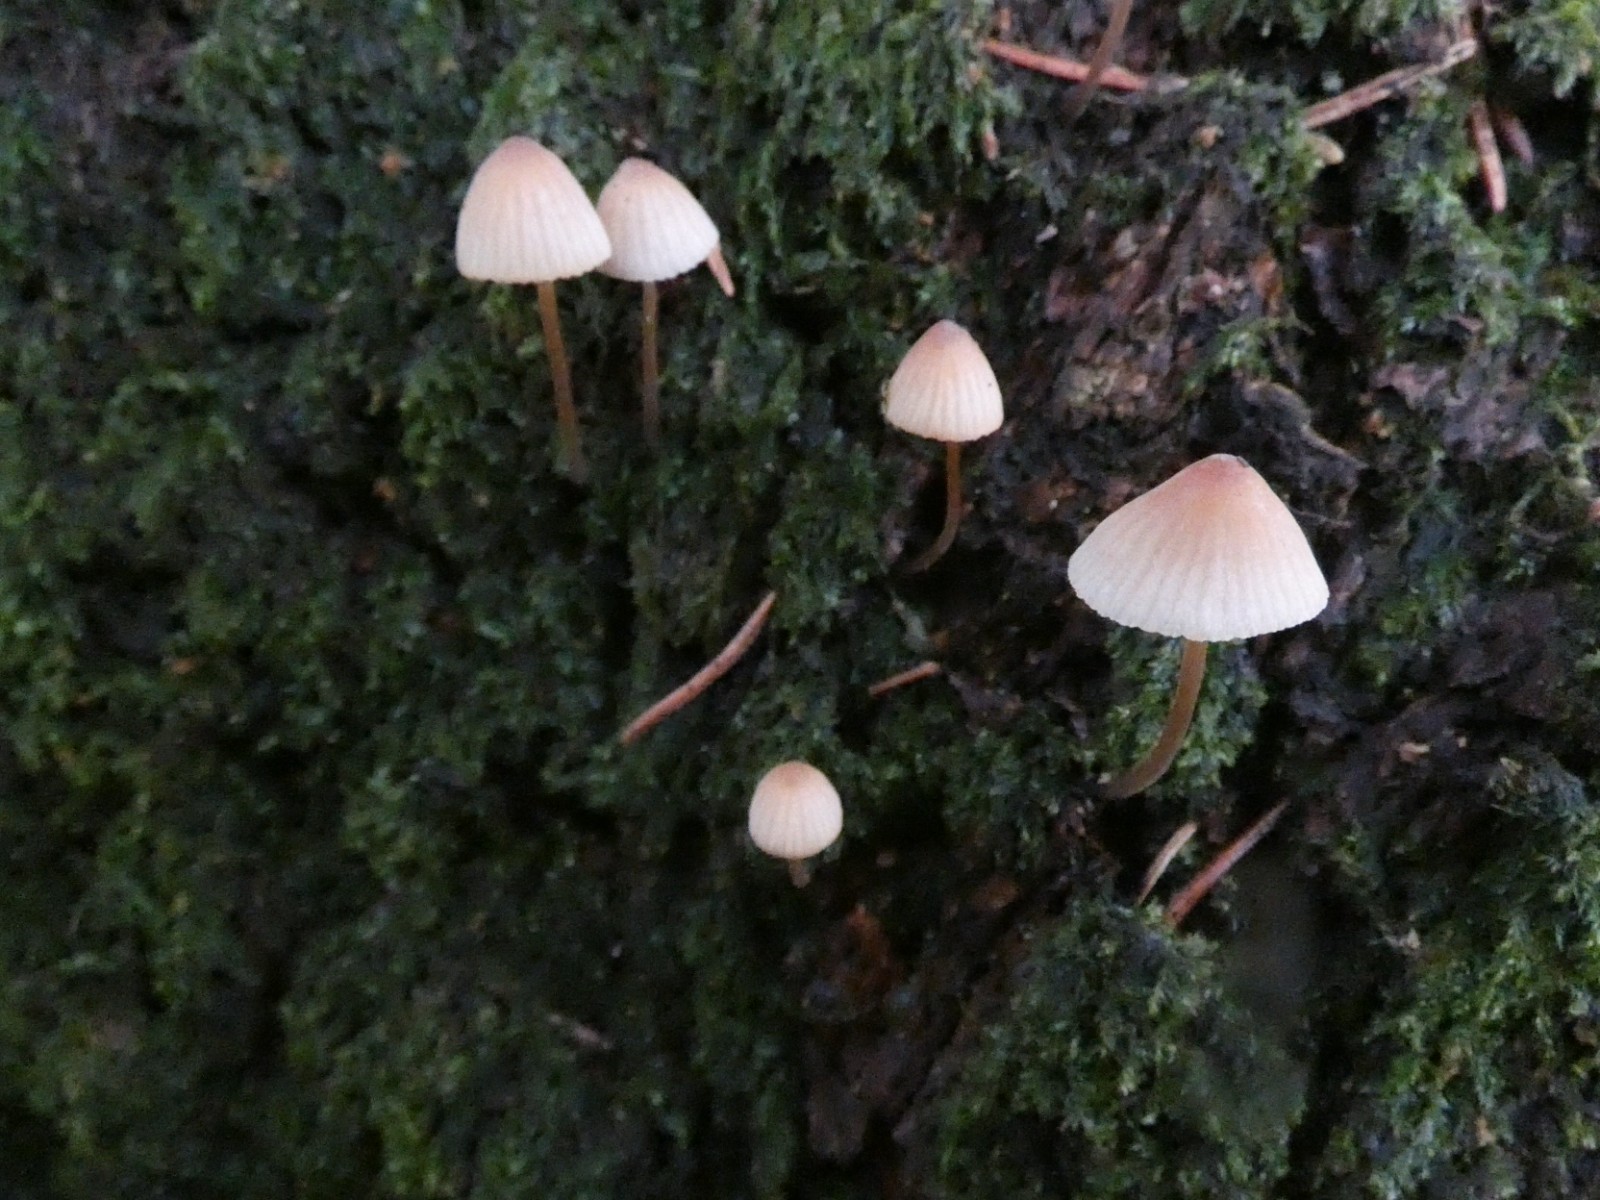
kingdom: Fungi
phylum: Basidiomycota
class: Agaricomycetes
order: Agaricales
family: Mycenaceae
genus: Mycena
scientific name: Mycena metata
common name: rødlig huesvamp
